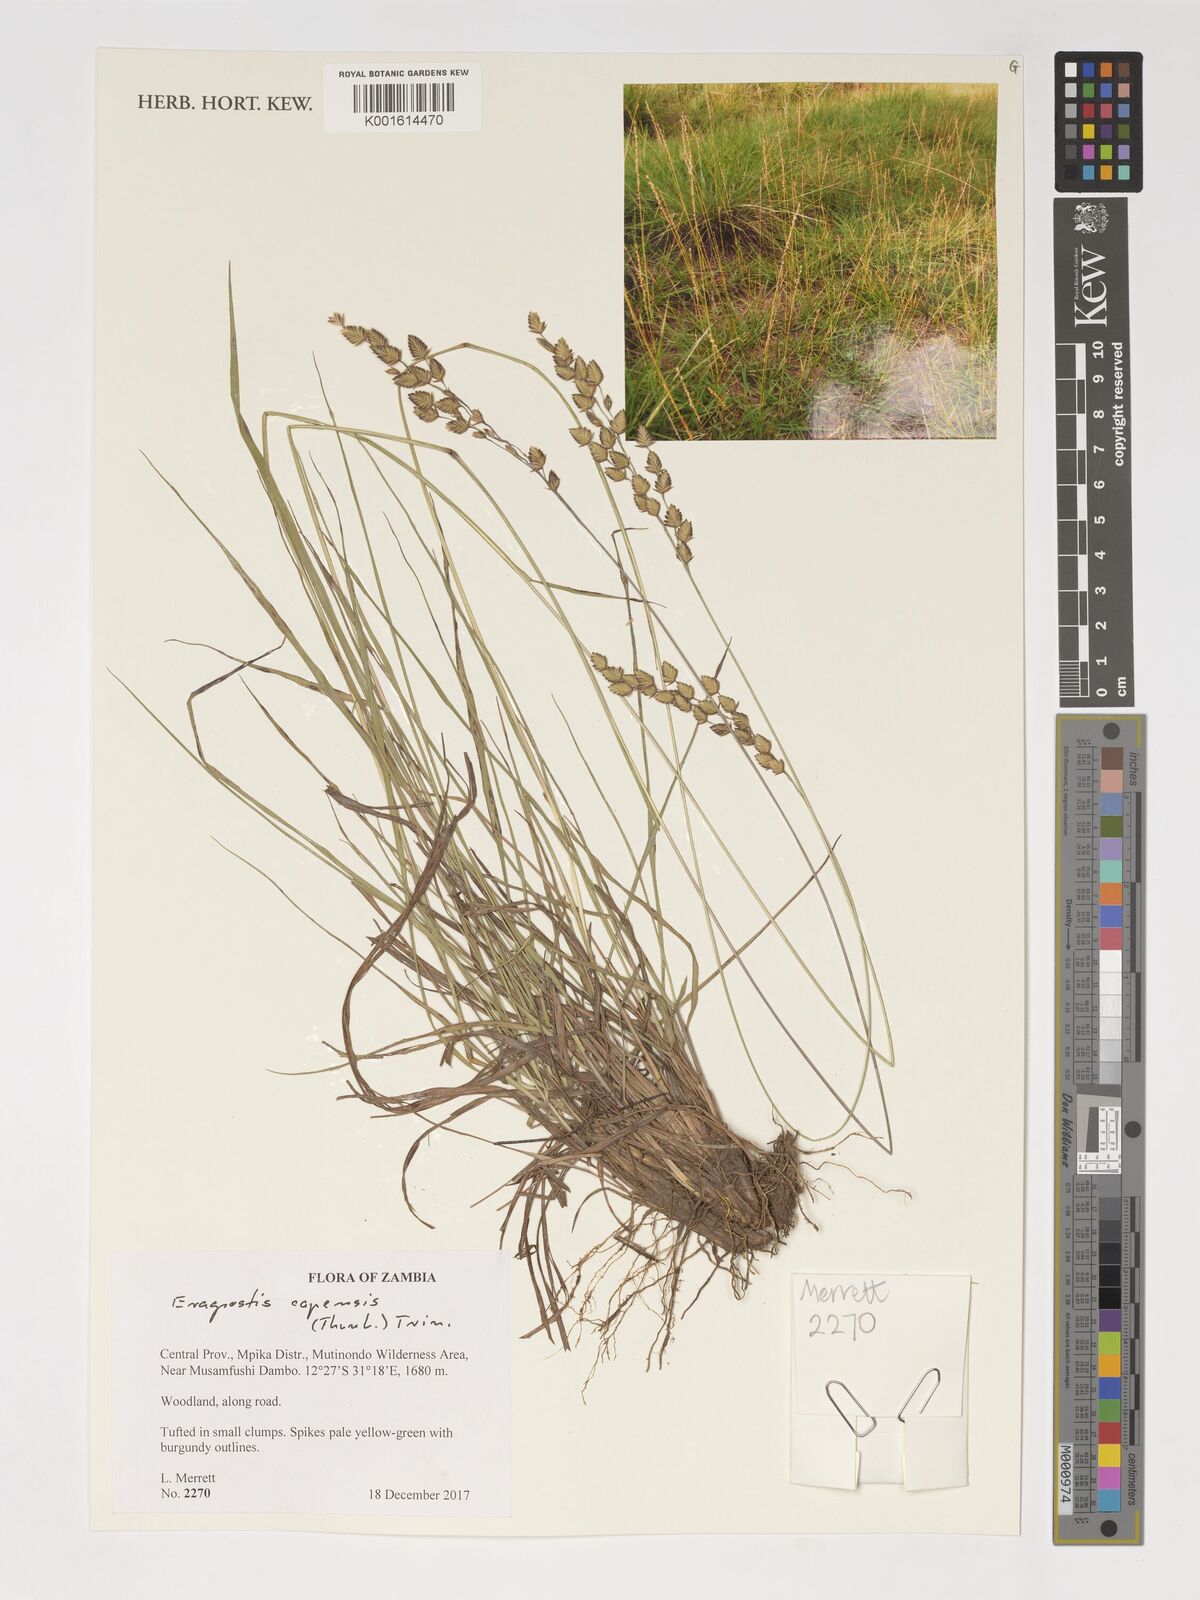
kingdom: Plantae
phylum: Tracheophyta
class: Liliopsida
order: Poales
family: Poaceae
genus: Eragrostis
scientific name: Eragrostis capensis
